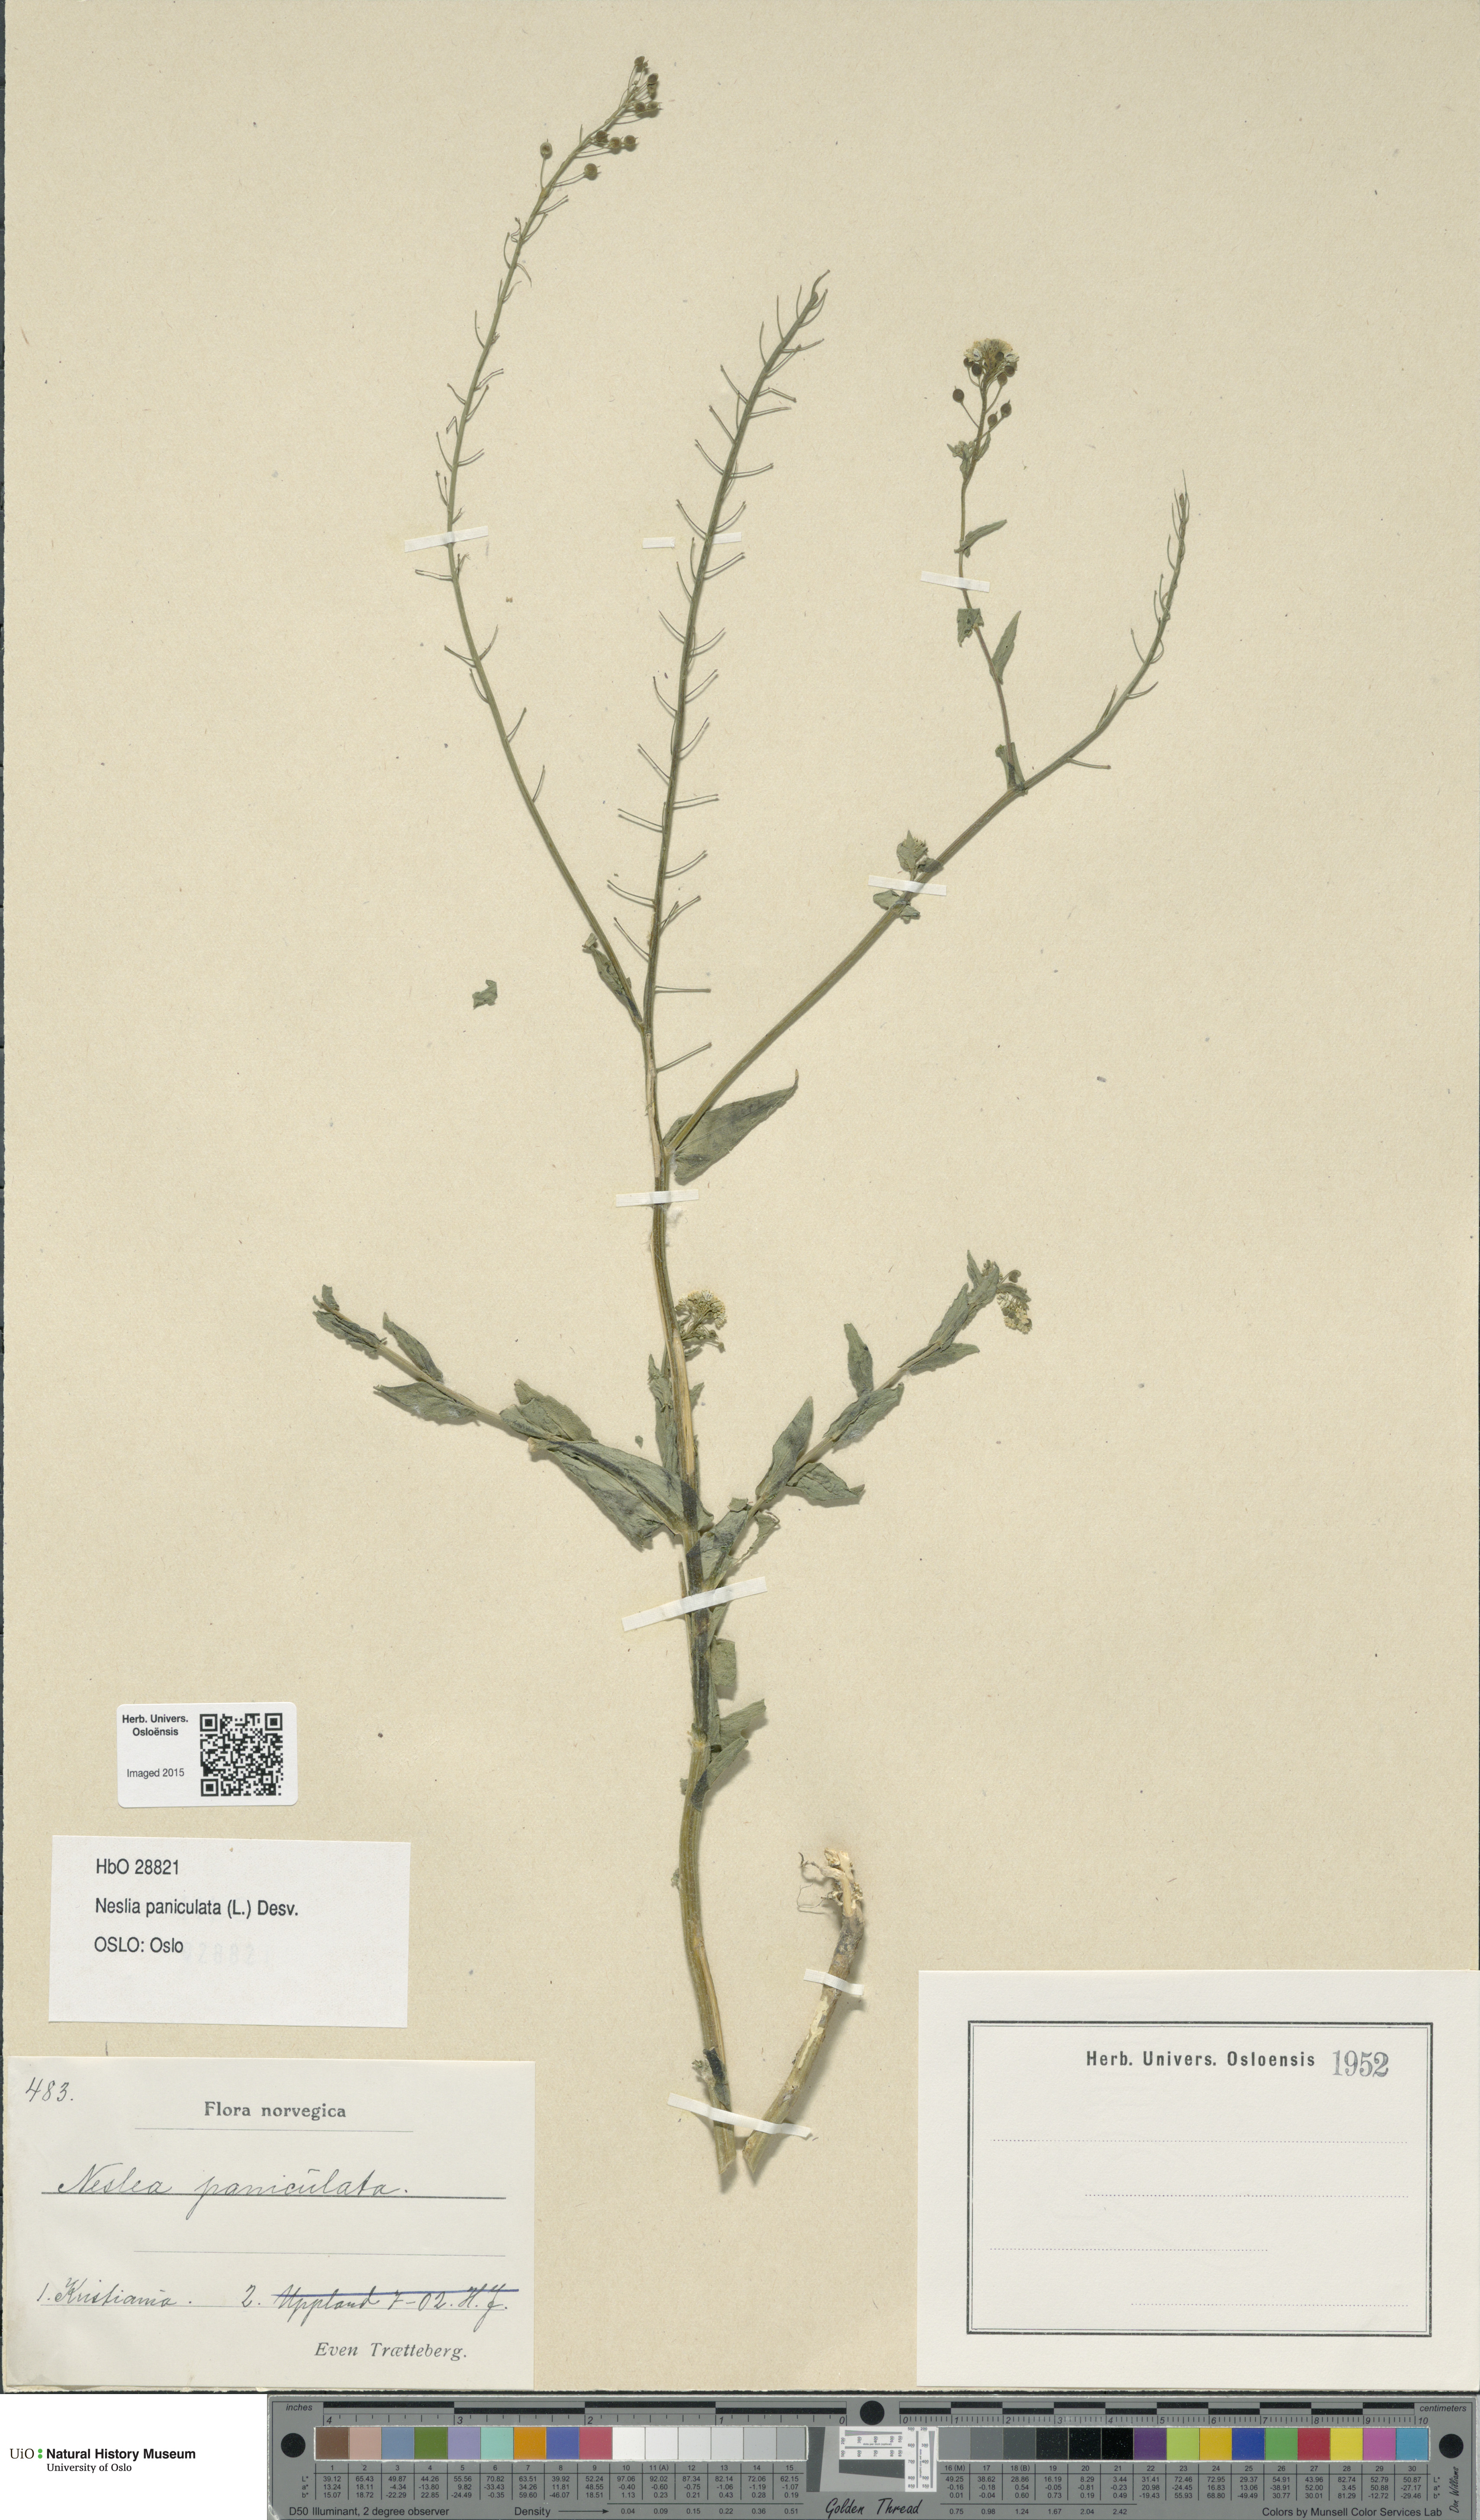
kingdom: Plantae
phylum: Tracheophyta
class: Magnoliopsida
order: Brassicales
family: Brassicaceae
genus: Neslia
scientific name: Neslia paniculata
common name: Ball mustard
